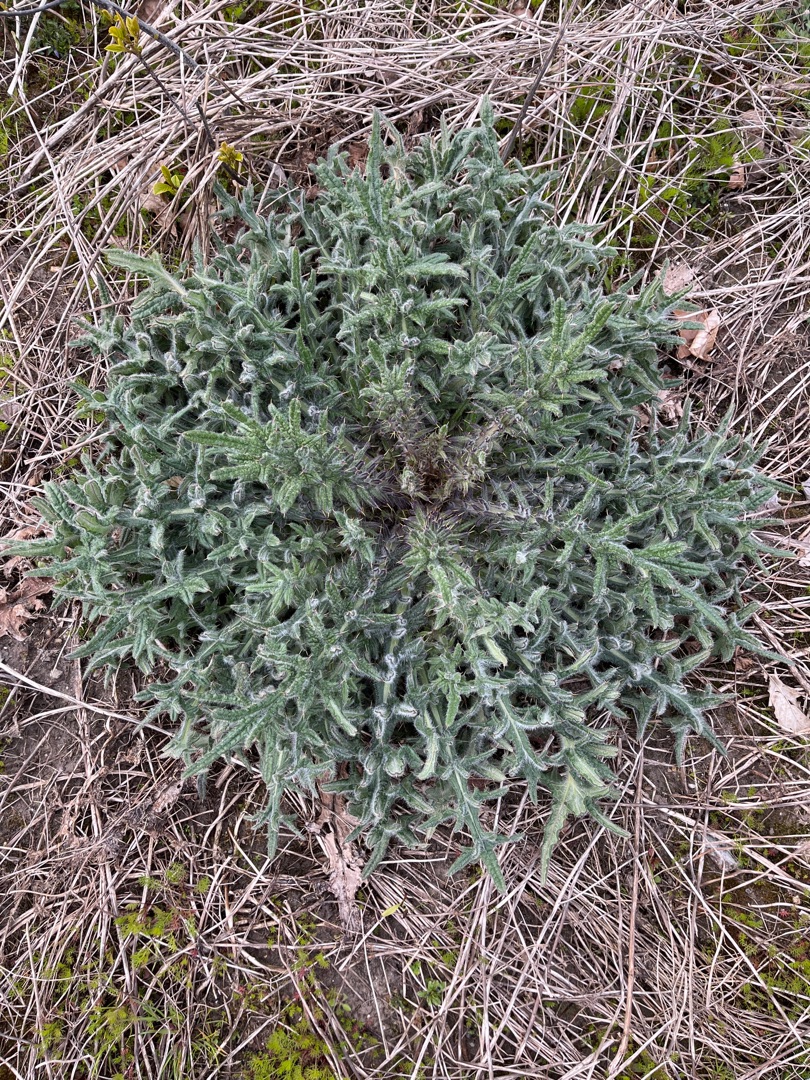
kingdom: Plantae
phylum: Tracheophyta
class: Magnoliopsida
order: Asterales
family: Asteraceae
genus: Cirsium
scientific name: Cirsium vulgare
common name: Horse-tidsel
